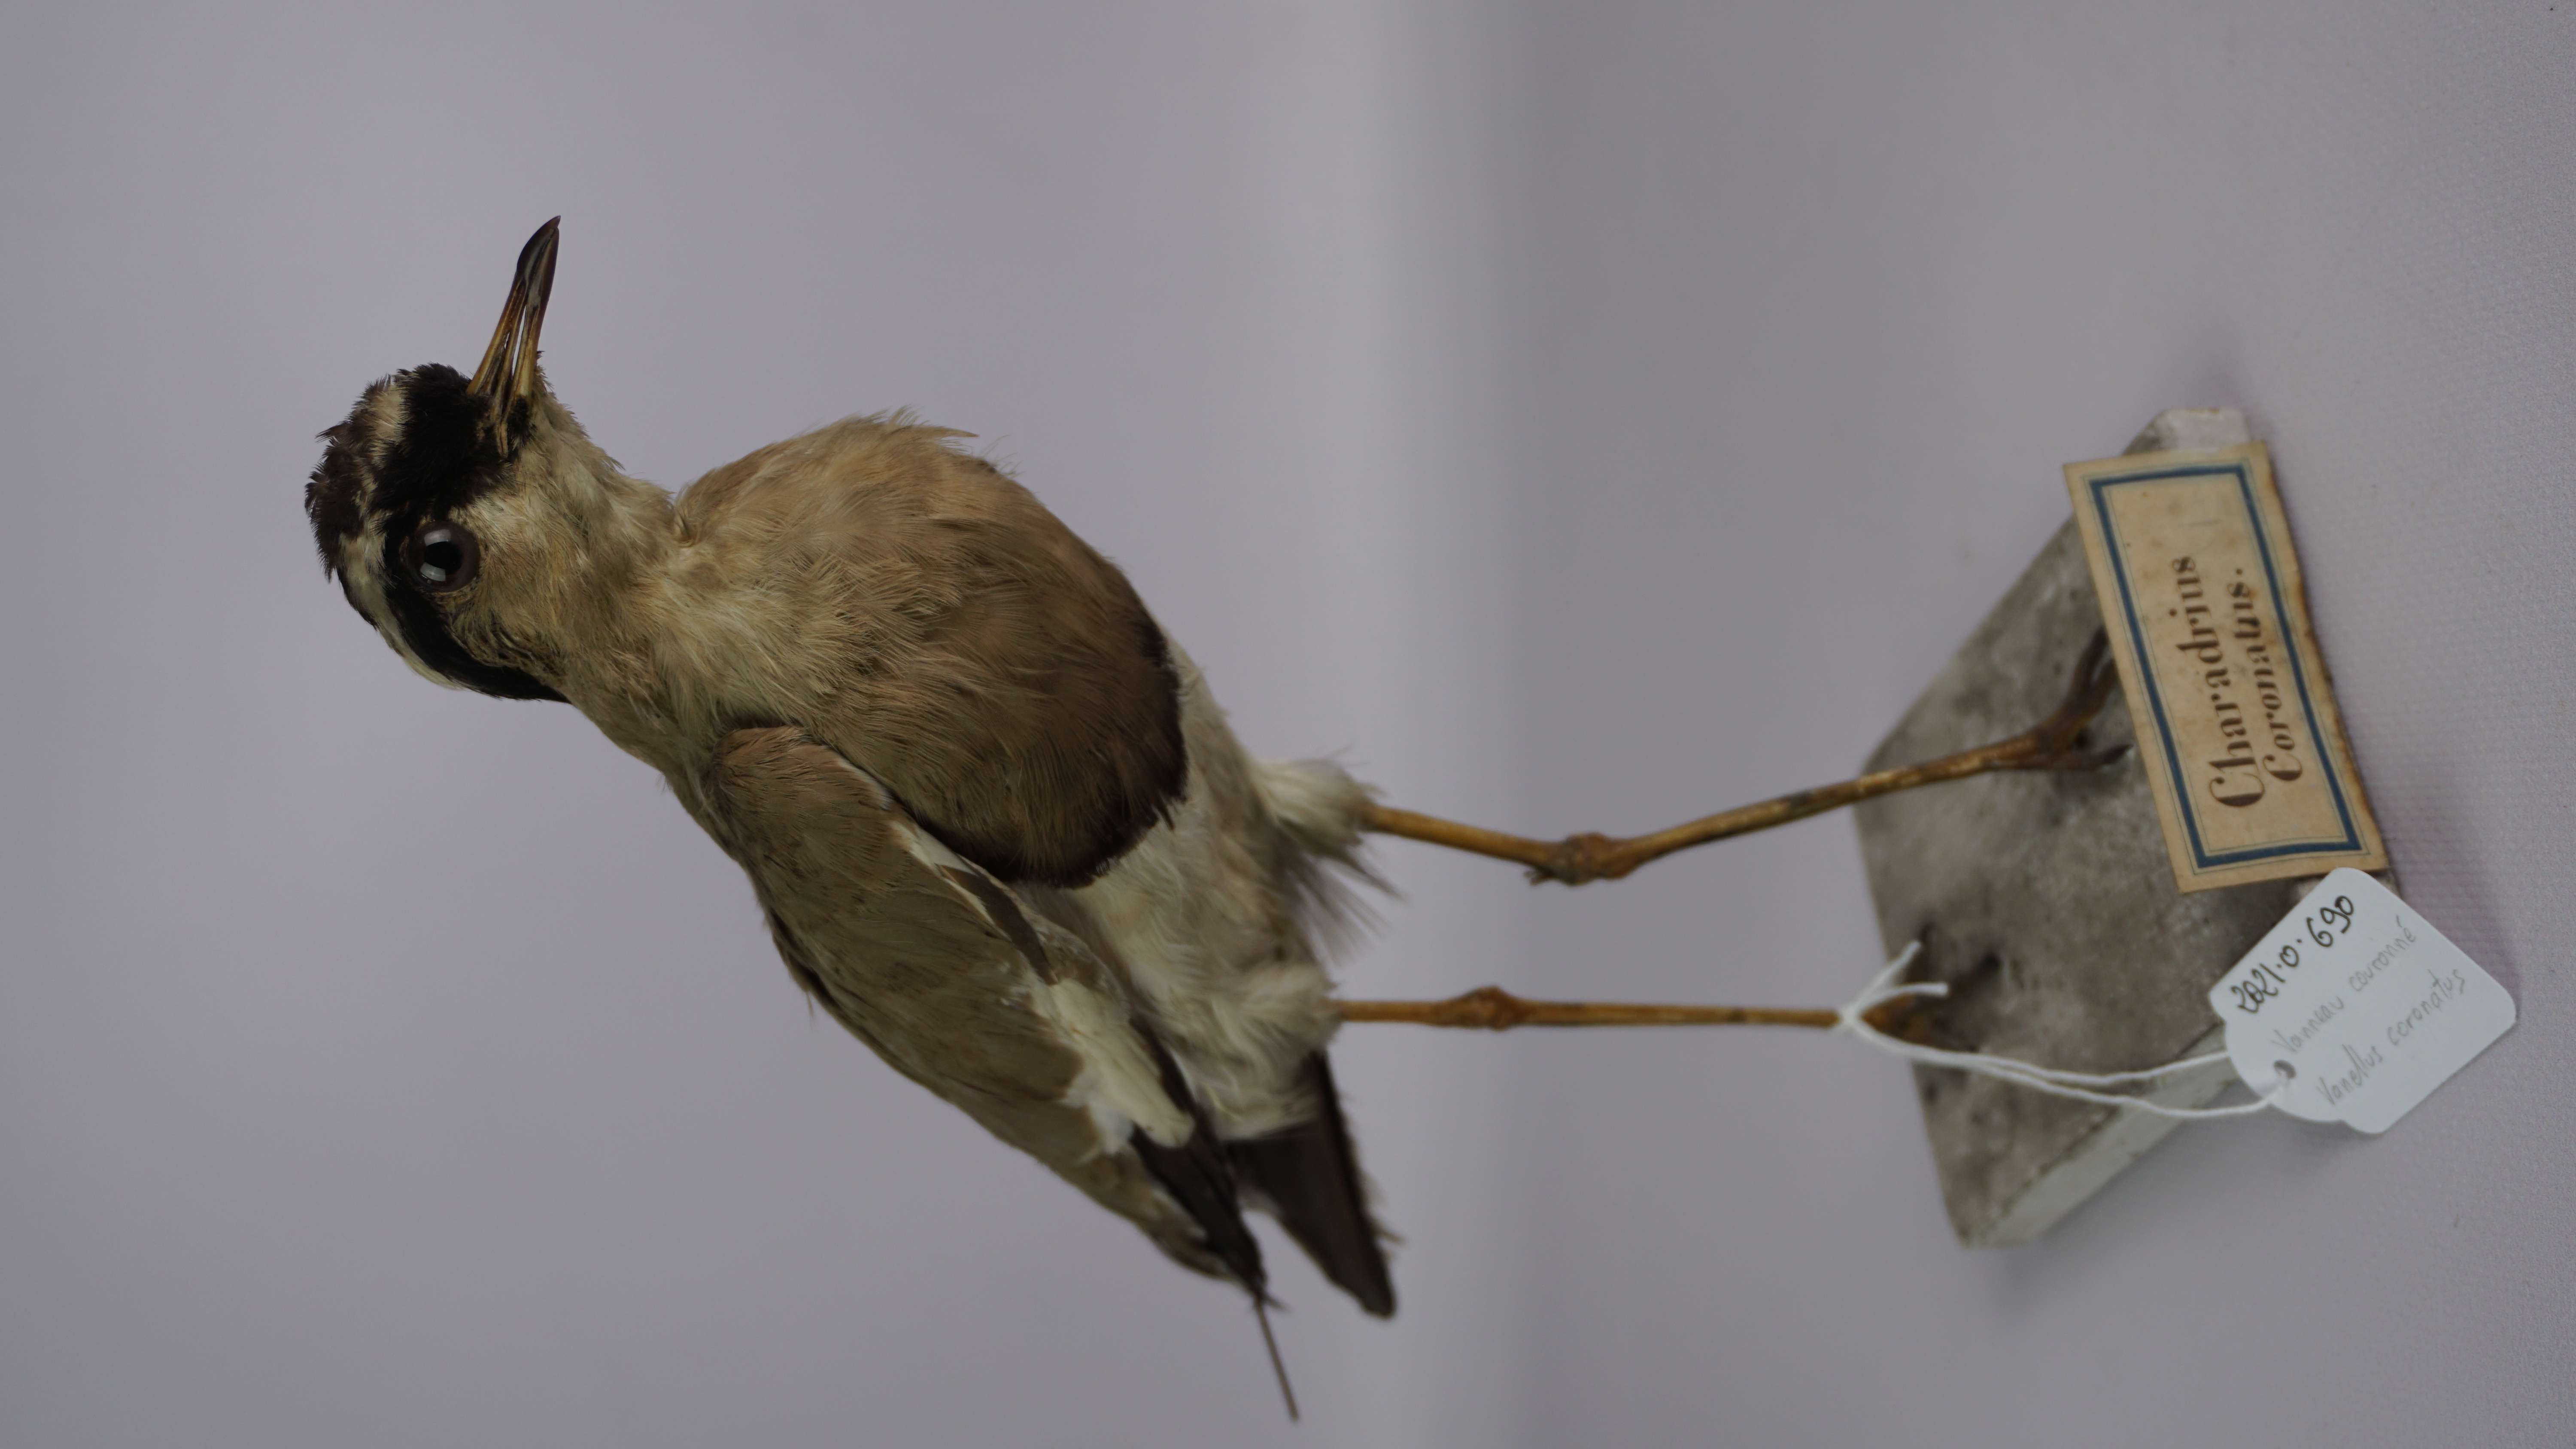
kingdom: Animalia
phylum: Chordata
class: Aves
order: Charadriiformes
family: Charadriidae
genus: Vanellus
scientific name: Vanellus coronatus
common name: Crowned lapwing
